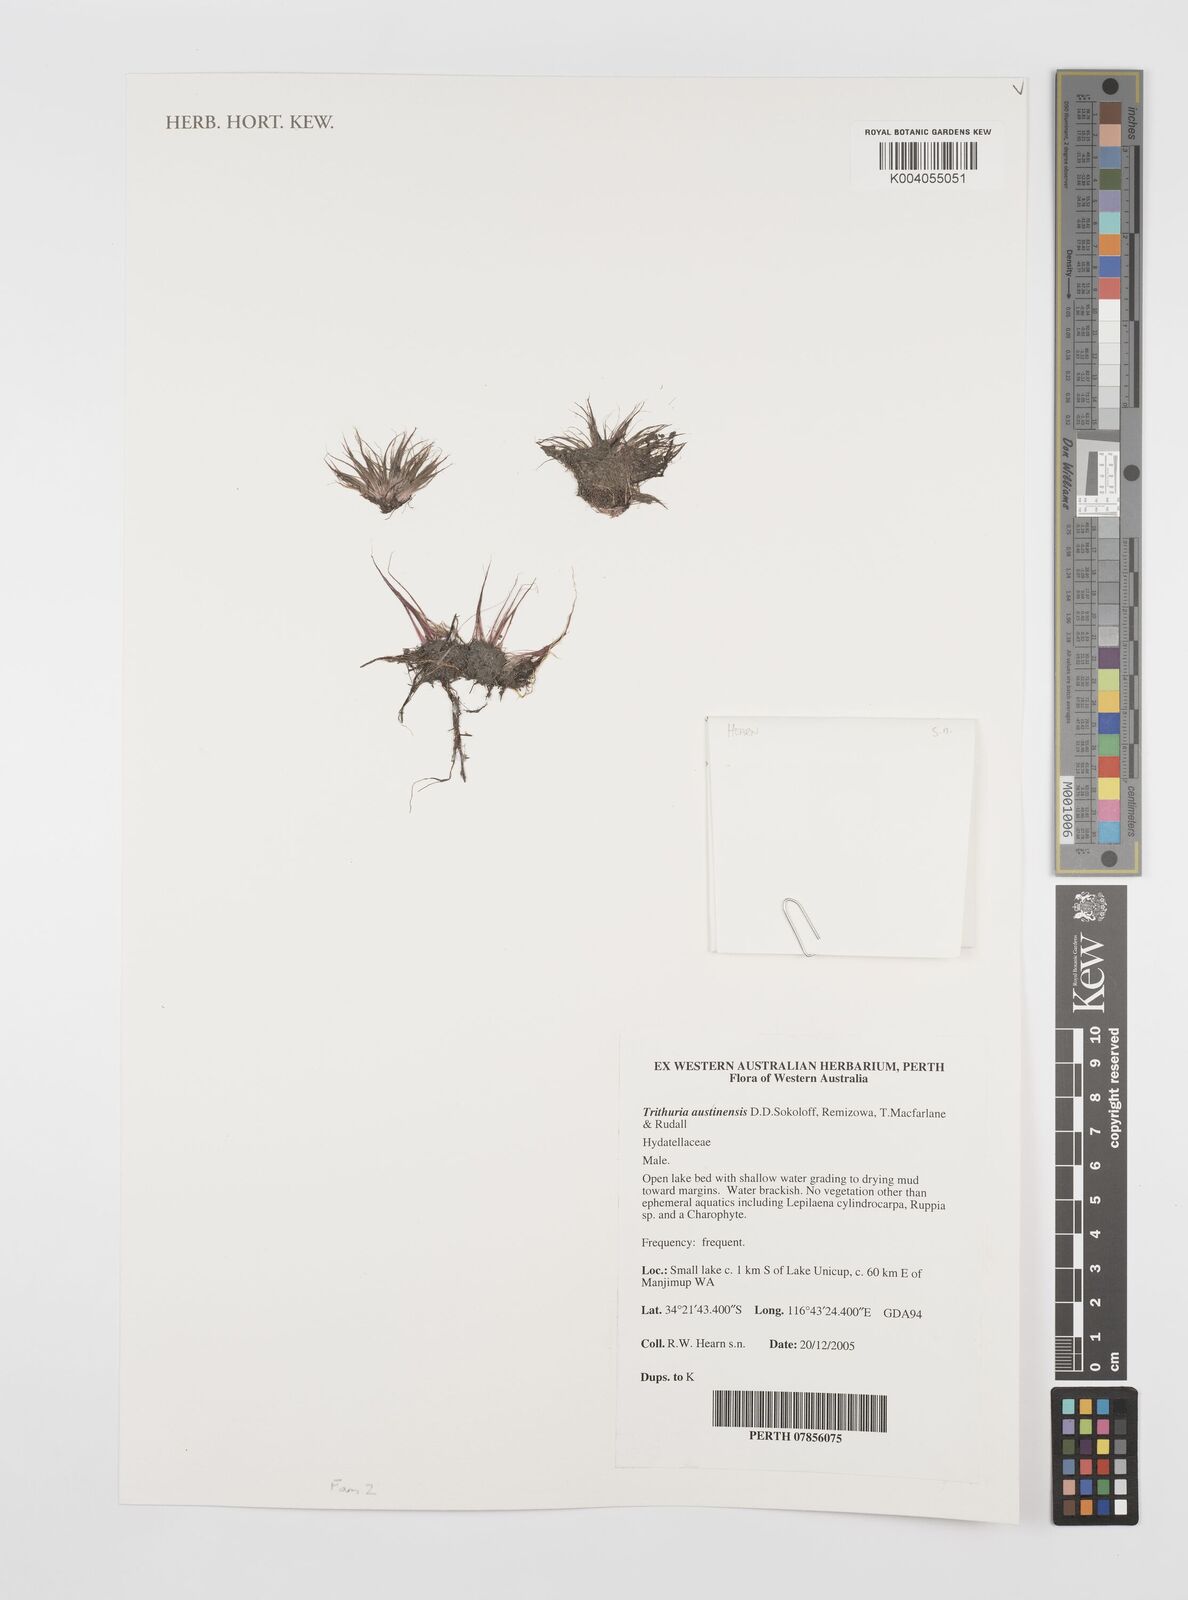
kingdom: Plantae
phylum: Tracheophyta
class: Magnoliopsida
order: Nymphaeales
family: Hydatellaceae
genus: Trithuria
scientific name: Trithuria austinensis
